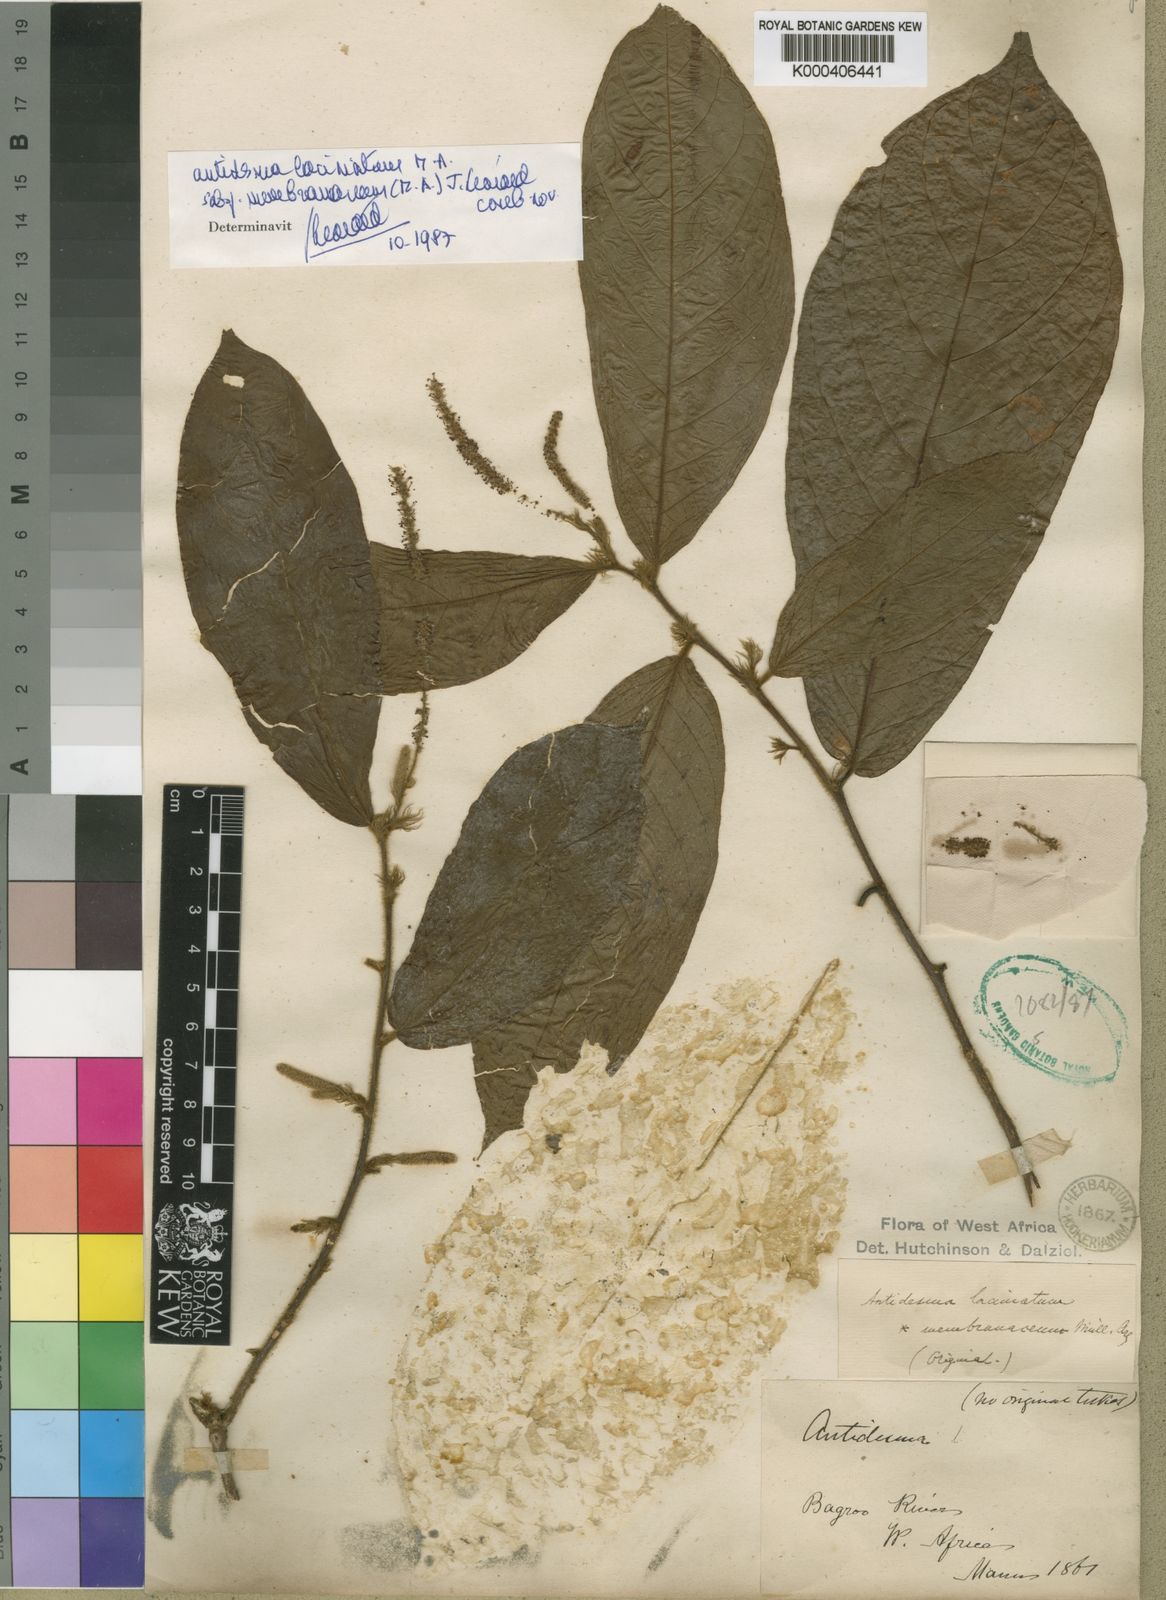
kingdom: Plantae
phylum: Tracheophyta
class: Magnoliopsida
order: Malpighiales
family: Phyllanthaceae
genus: Antidesma
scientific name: Antidesma
